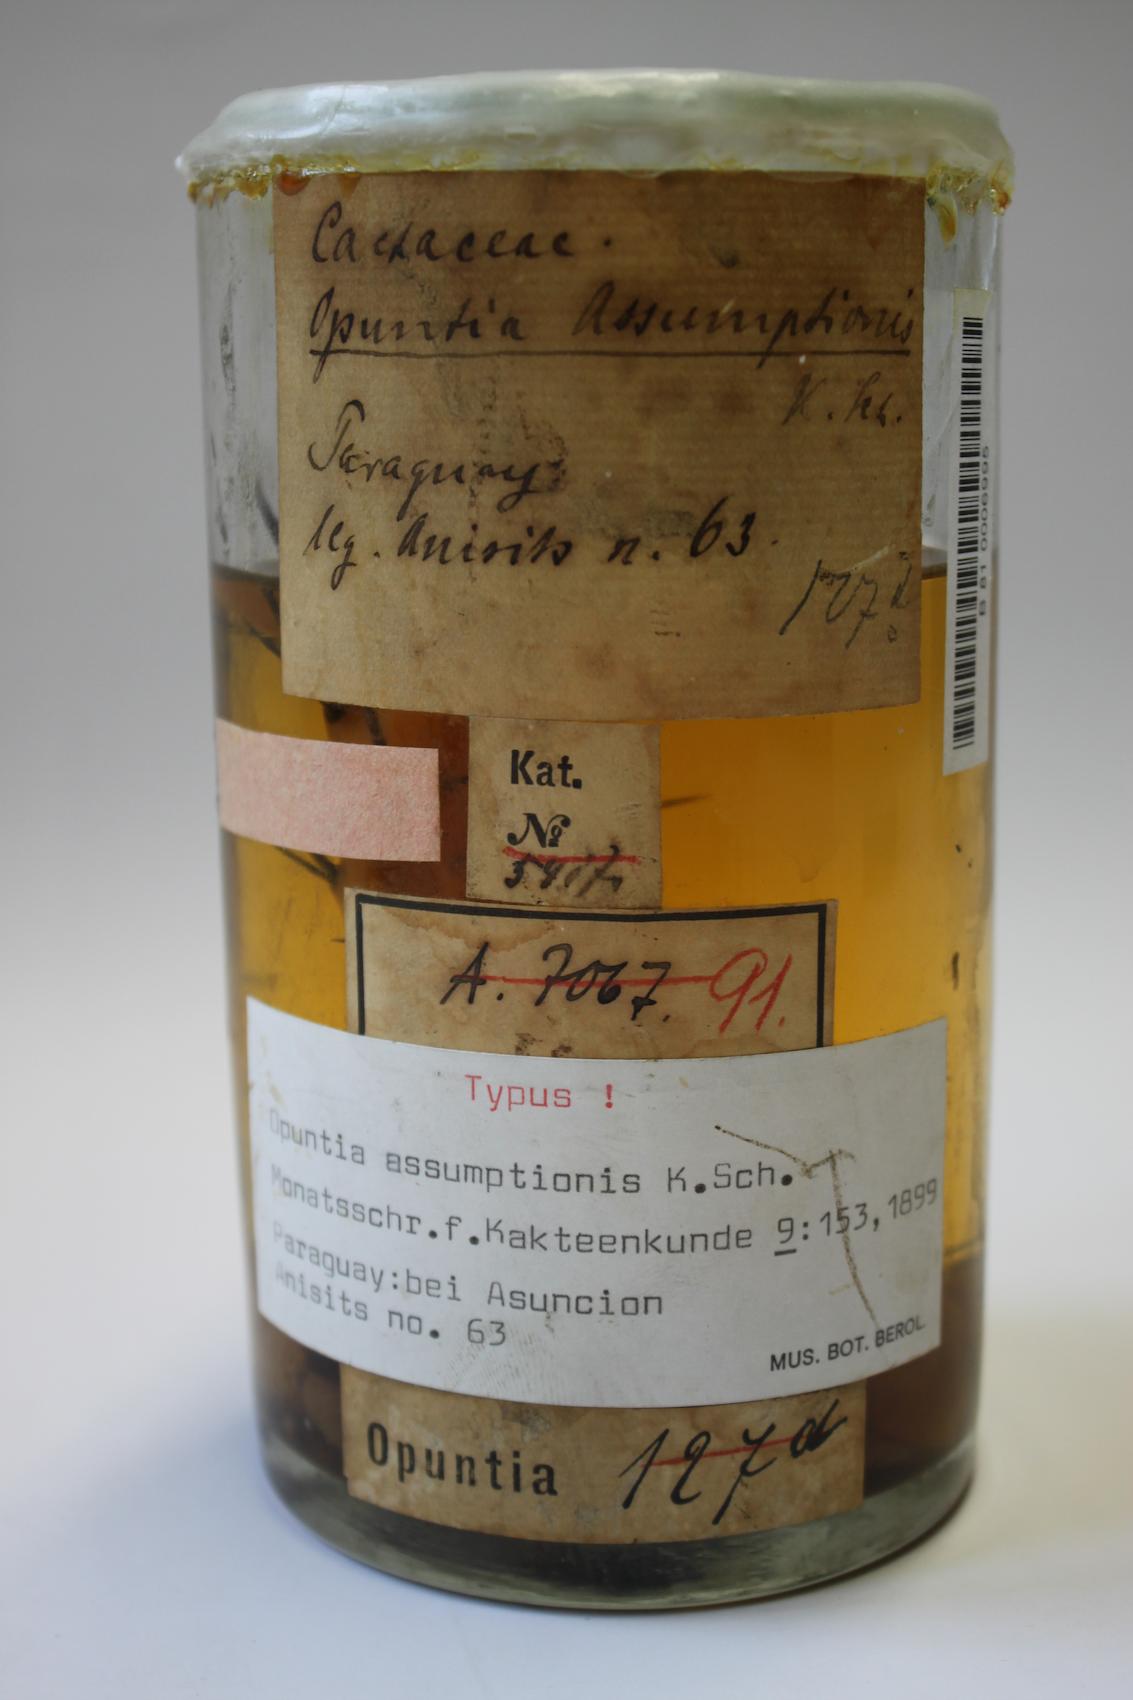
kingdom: Plantae
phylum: Tracheophyta
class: Magnoliopsida
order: Caryophyllales
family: Cactaceae
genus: Opuntia
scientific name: Opuntia stenarthra
